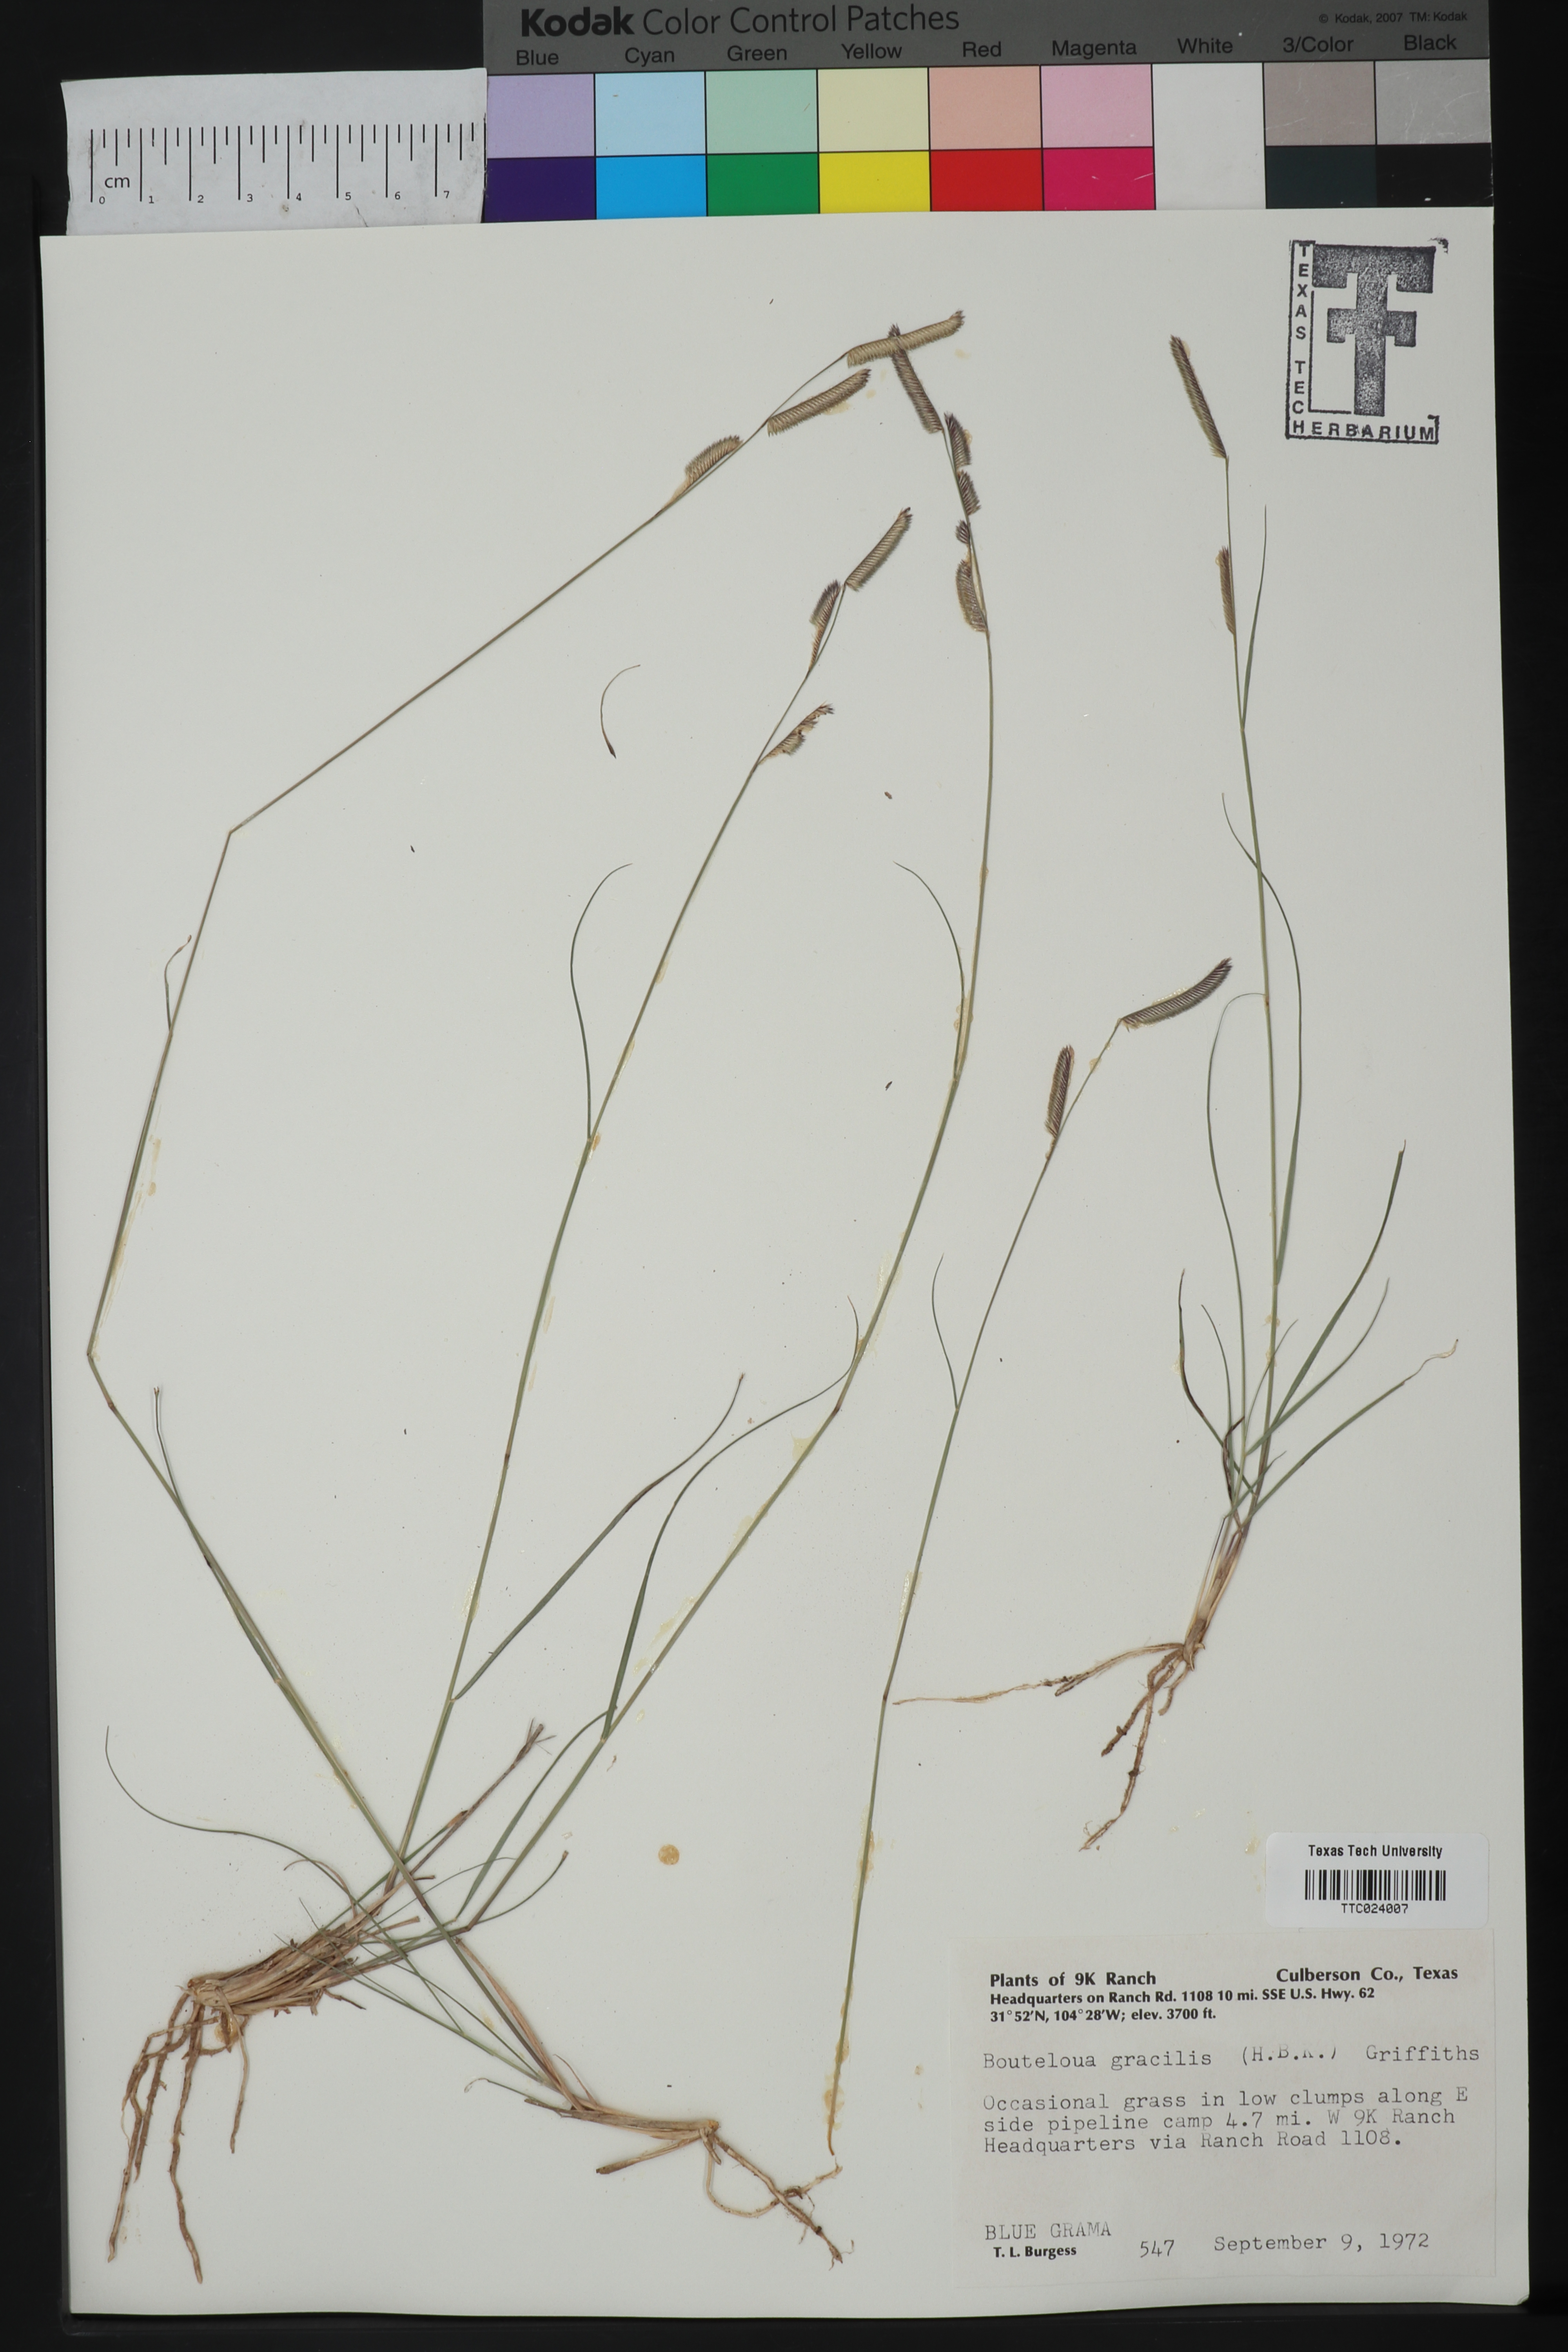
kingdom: Plantae
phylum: Tracheophyta
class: Liliopsida
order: Poales
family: Poaceae
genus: Bouteloua
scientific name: Bouteloua gracilis
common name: Blue grama
